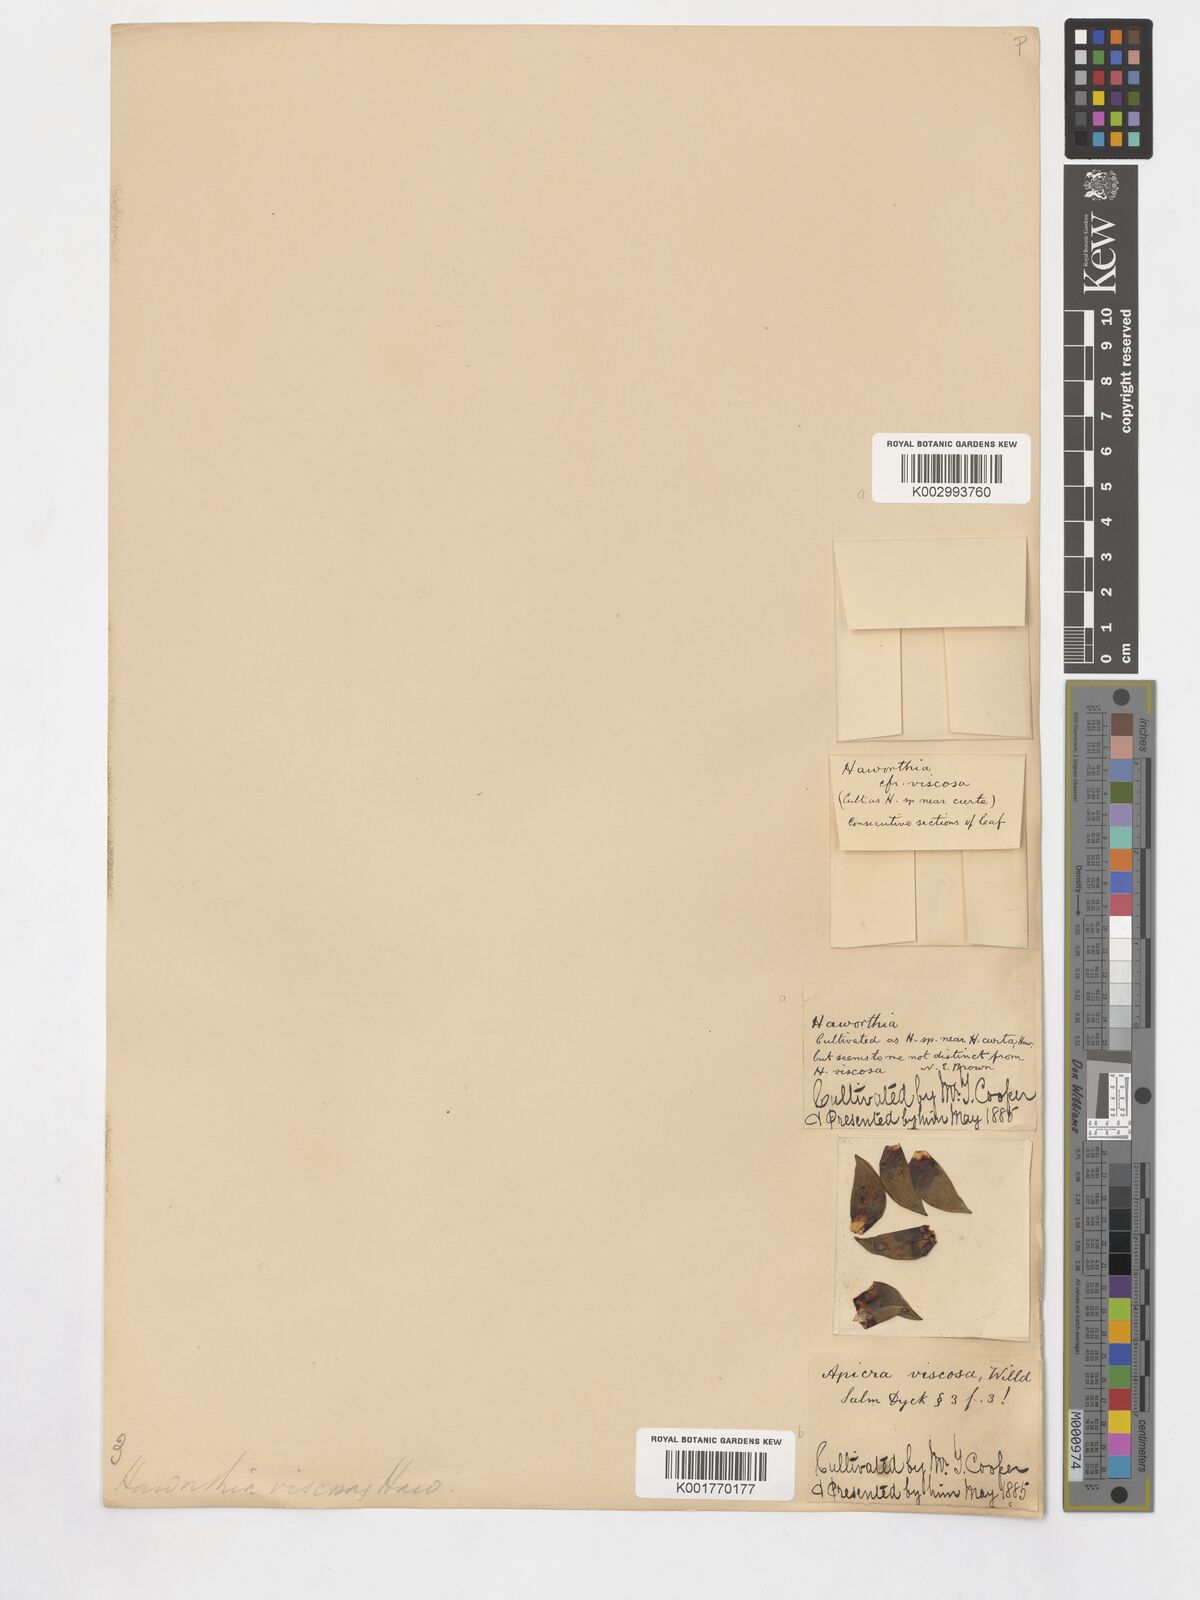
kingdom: Plantae
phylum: Tracheophyta
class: Liliopsida
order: Asparagales
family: Asphodelaceae
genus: Haworthiopsis
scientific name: Haworthiopsis viscosa
